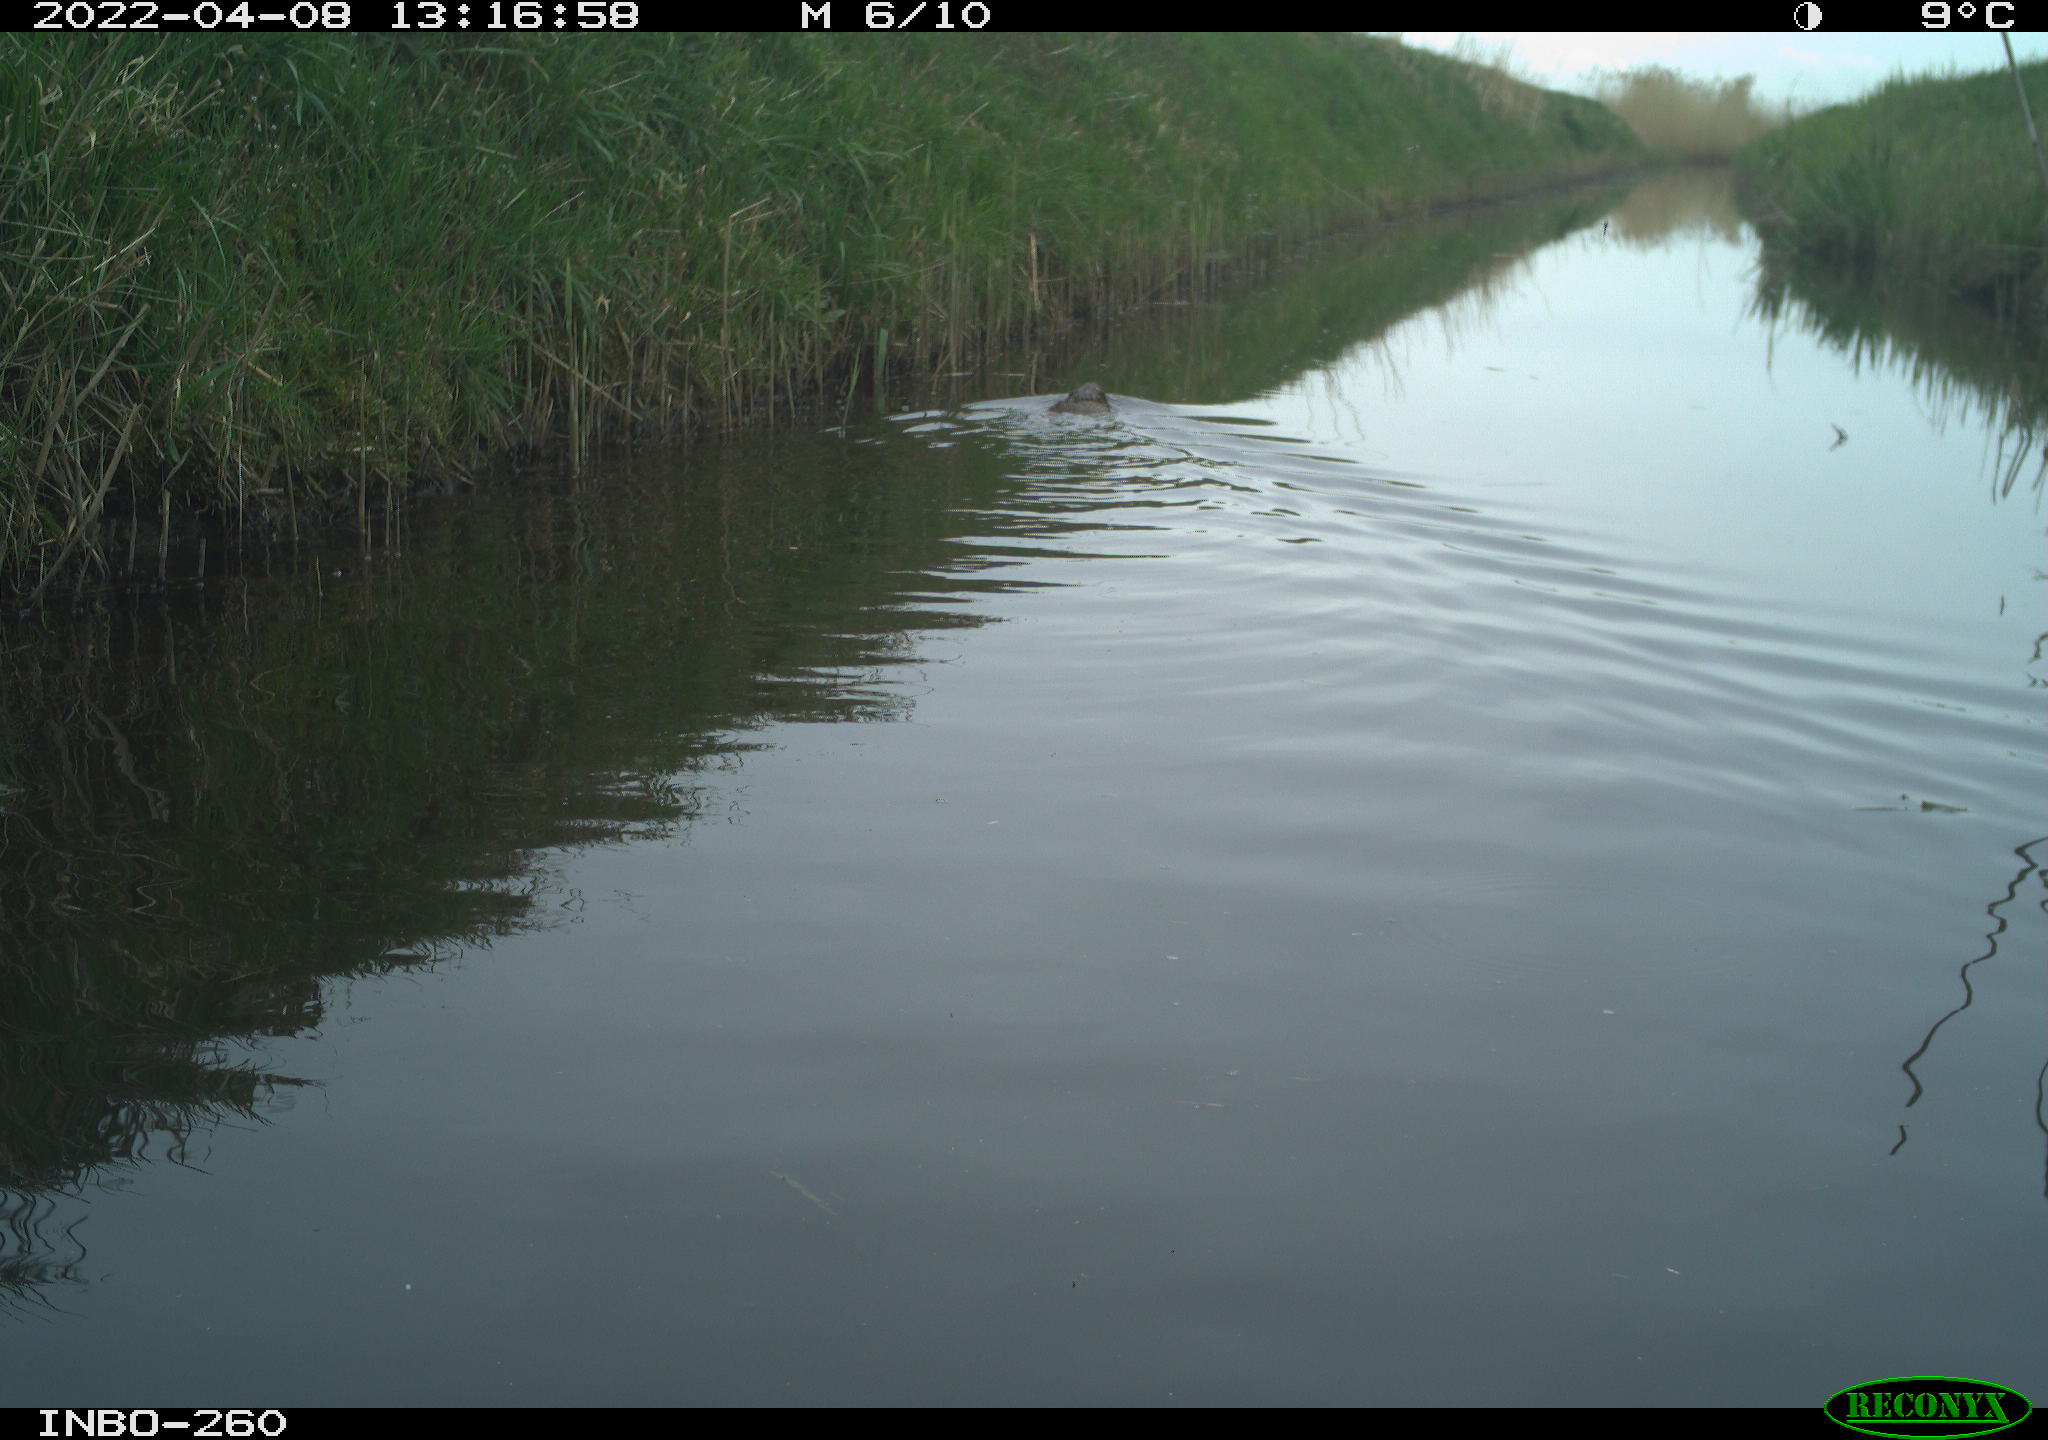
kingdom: Animalia
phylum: Chordata
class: Mammalia
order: Rodentia
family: Castoridae
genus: Castor
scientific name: Castor fiber
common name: Eurasian beaver
